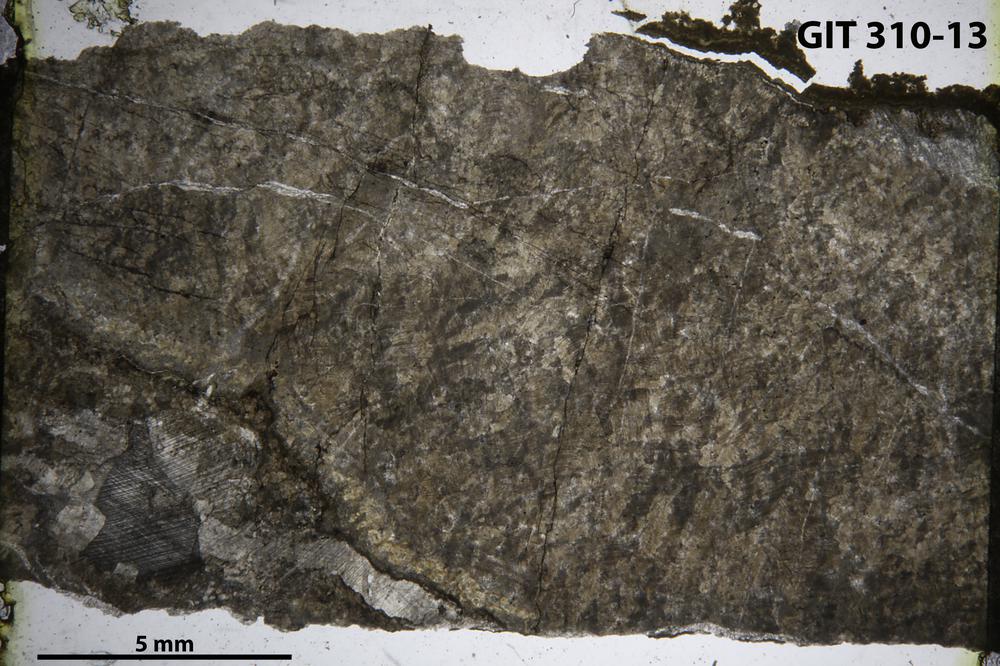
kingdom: Animalia
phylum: Porifera
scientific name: Porifera
